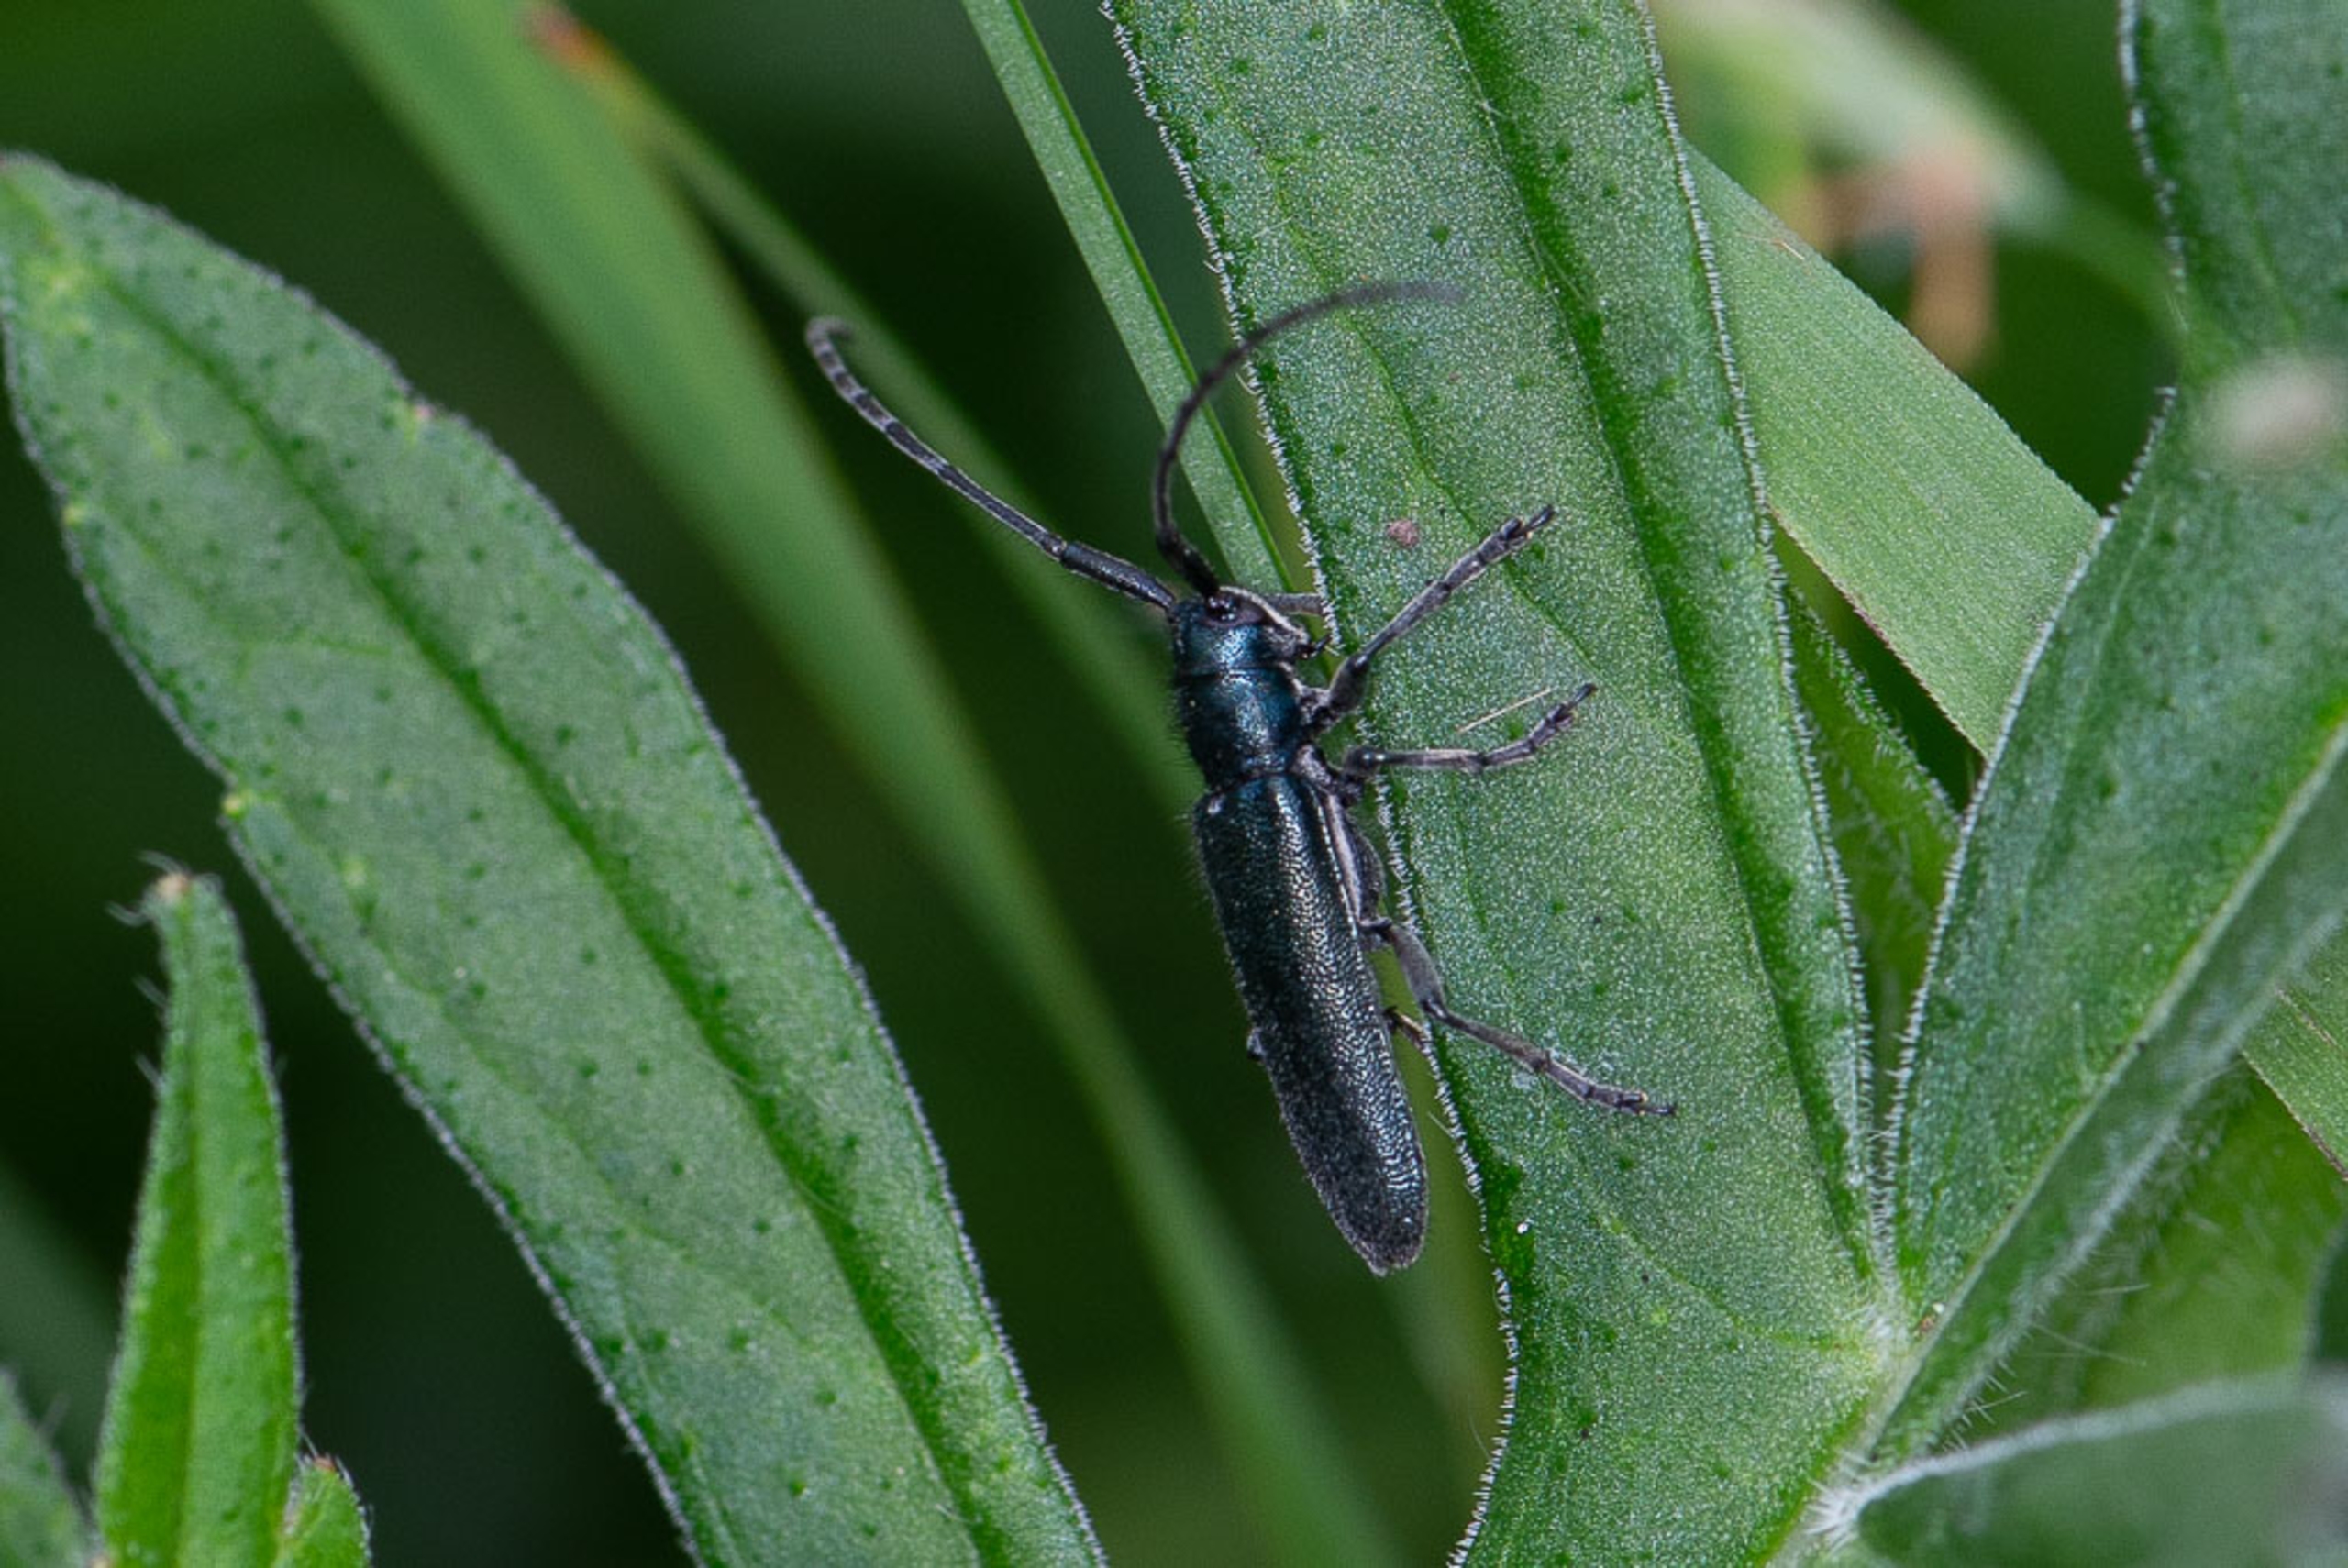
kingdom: Animalia
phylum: Arthropoda
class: Insecta
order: Coleoptera
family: Cerambycidae
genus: Agapanthia
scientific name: Agapanthia intermedia
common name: Blåhatbuk
